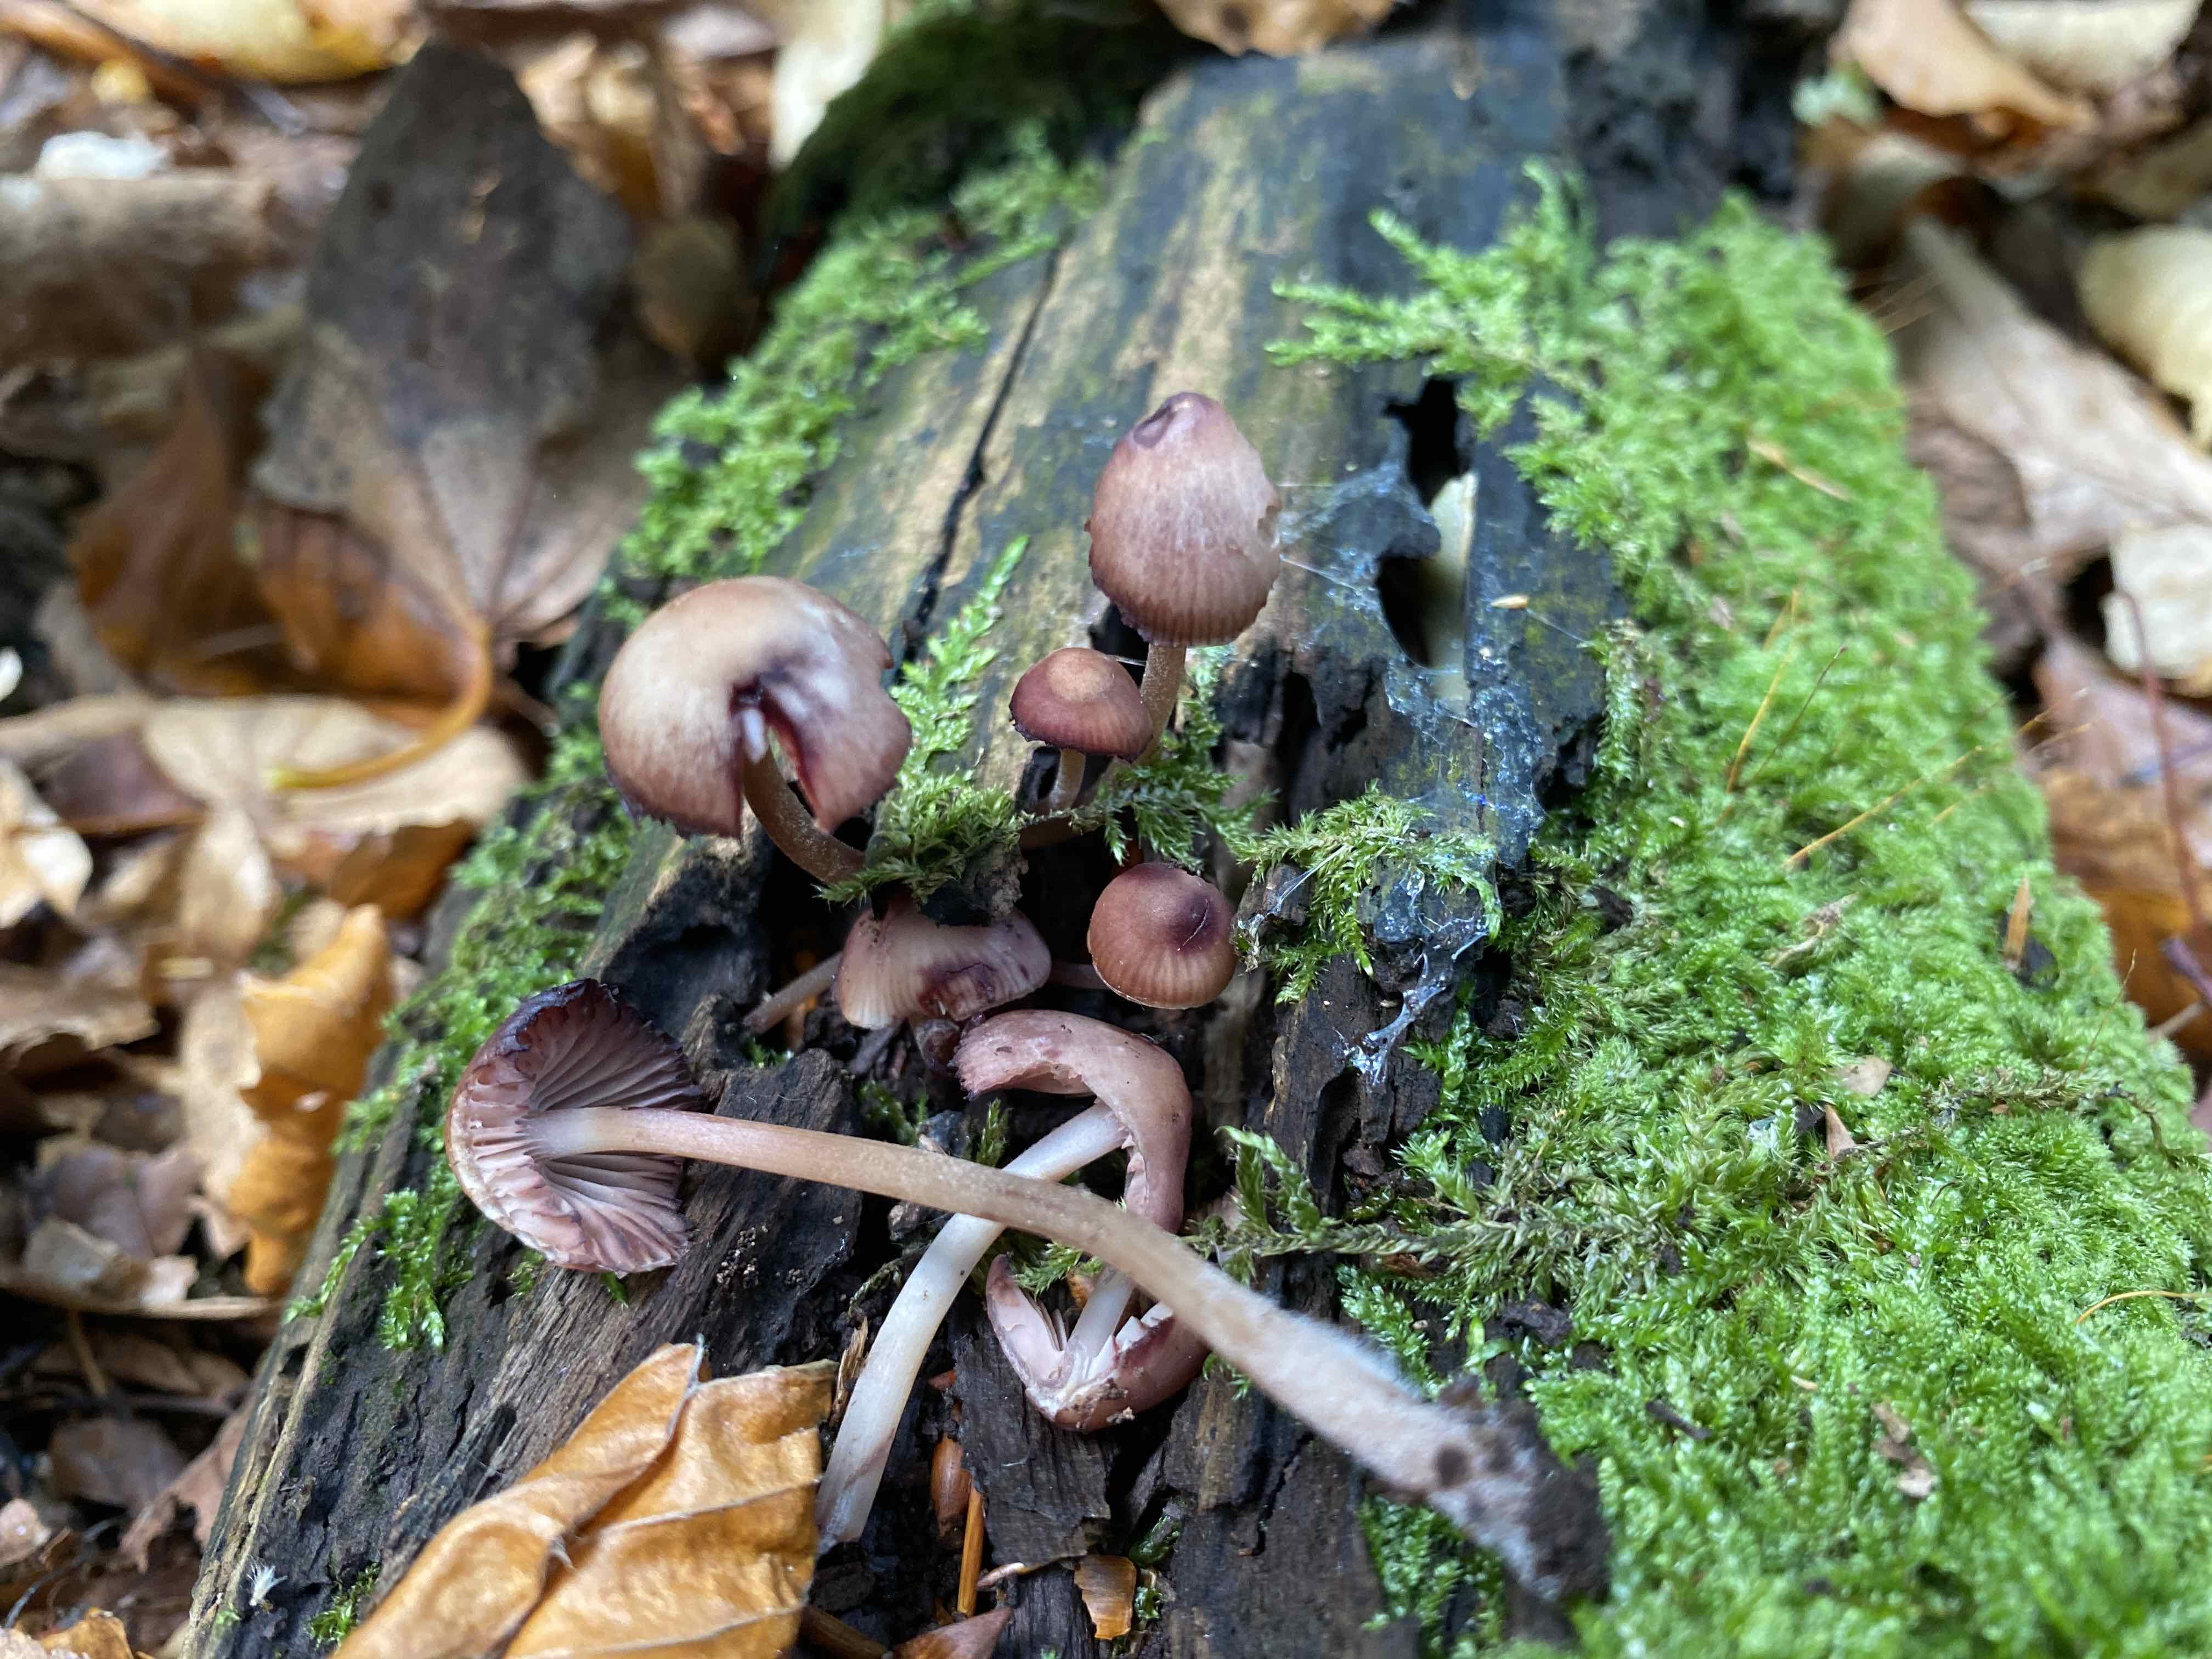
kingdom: Fungi
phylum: Basidiomycota
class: Agaricomycetes
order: Agaricales
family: Mycenaceae
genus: Mycena
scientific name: Mycena haematopus
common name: blødende huesvamp
